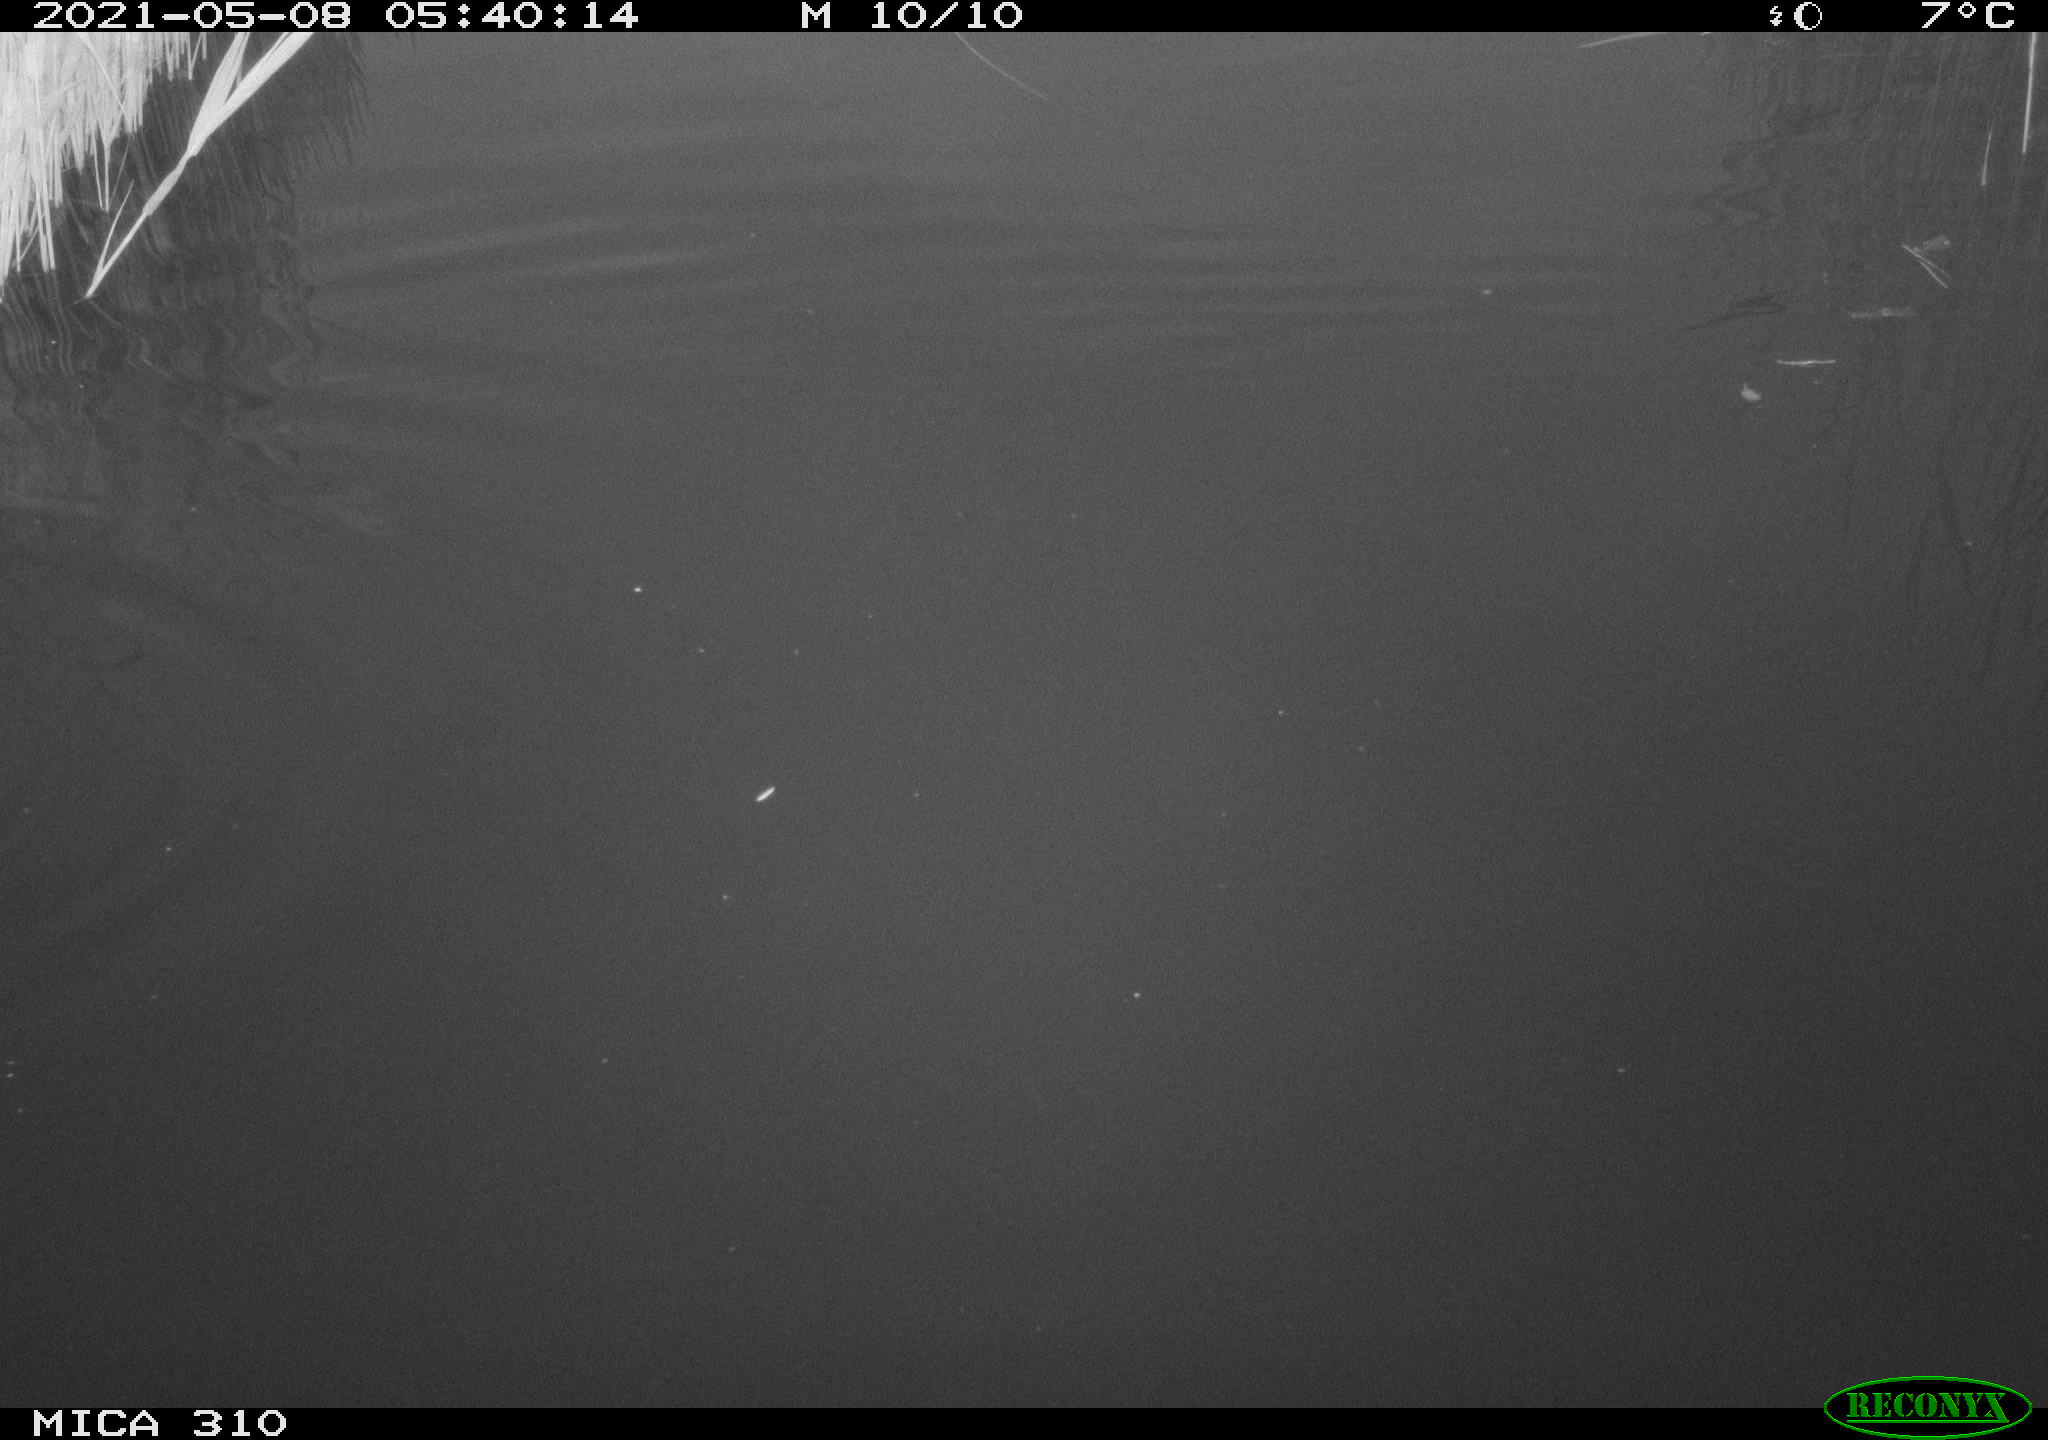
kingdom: Animalia
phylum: Chordata
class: Aves
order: Gruiformes
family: Rallidae
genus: Fulica
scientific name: Fulica atra
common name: Eurasian coot
